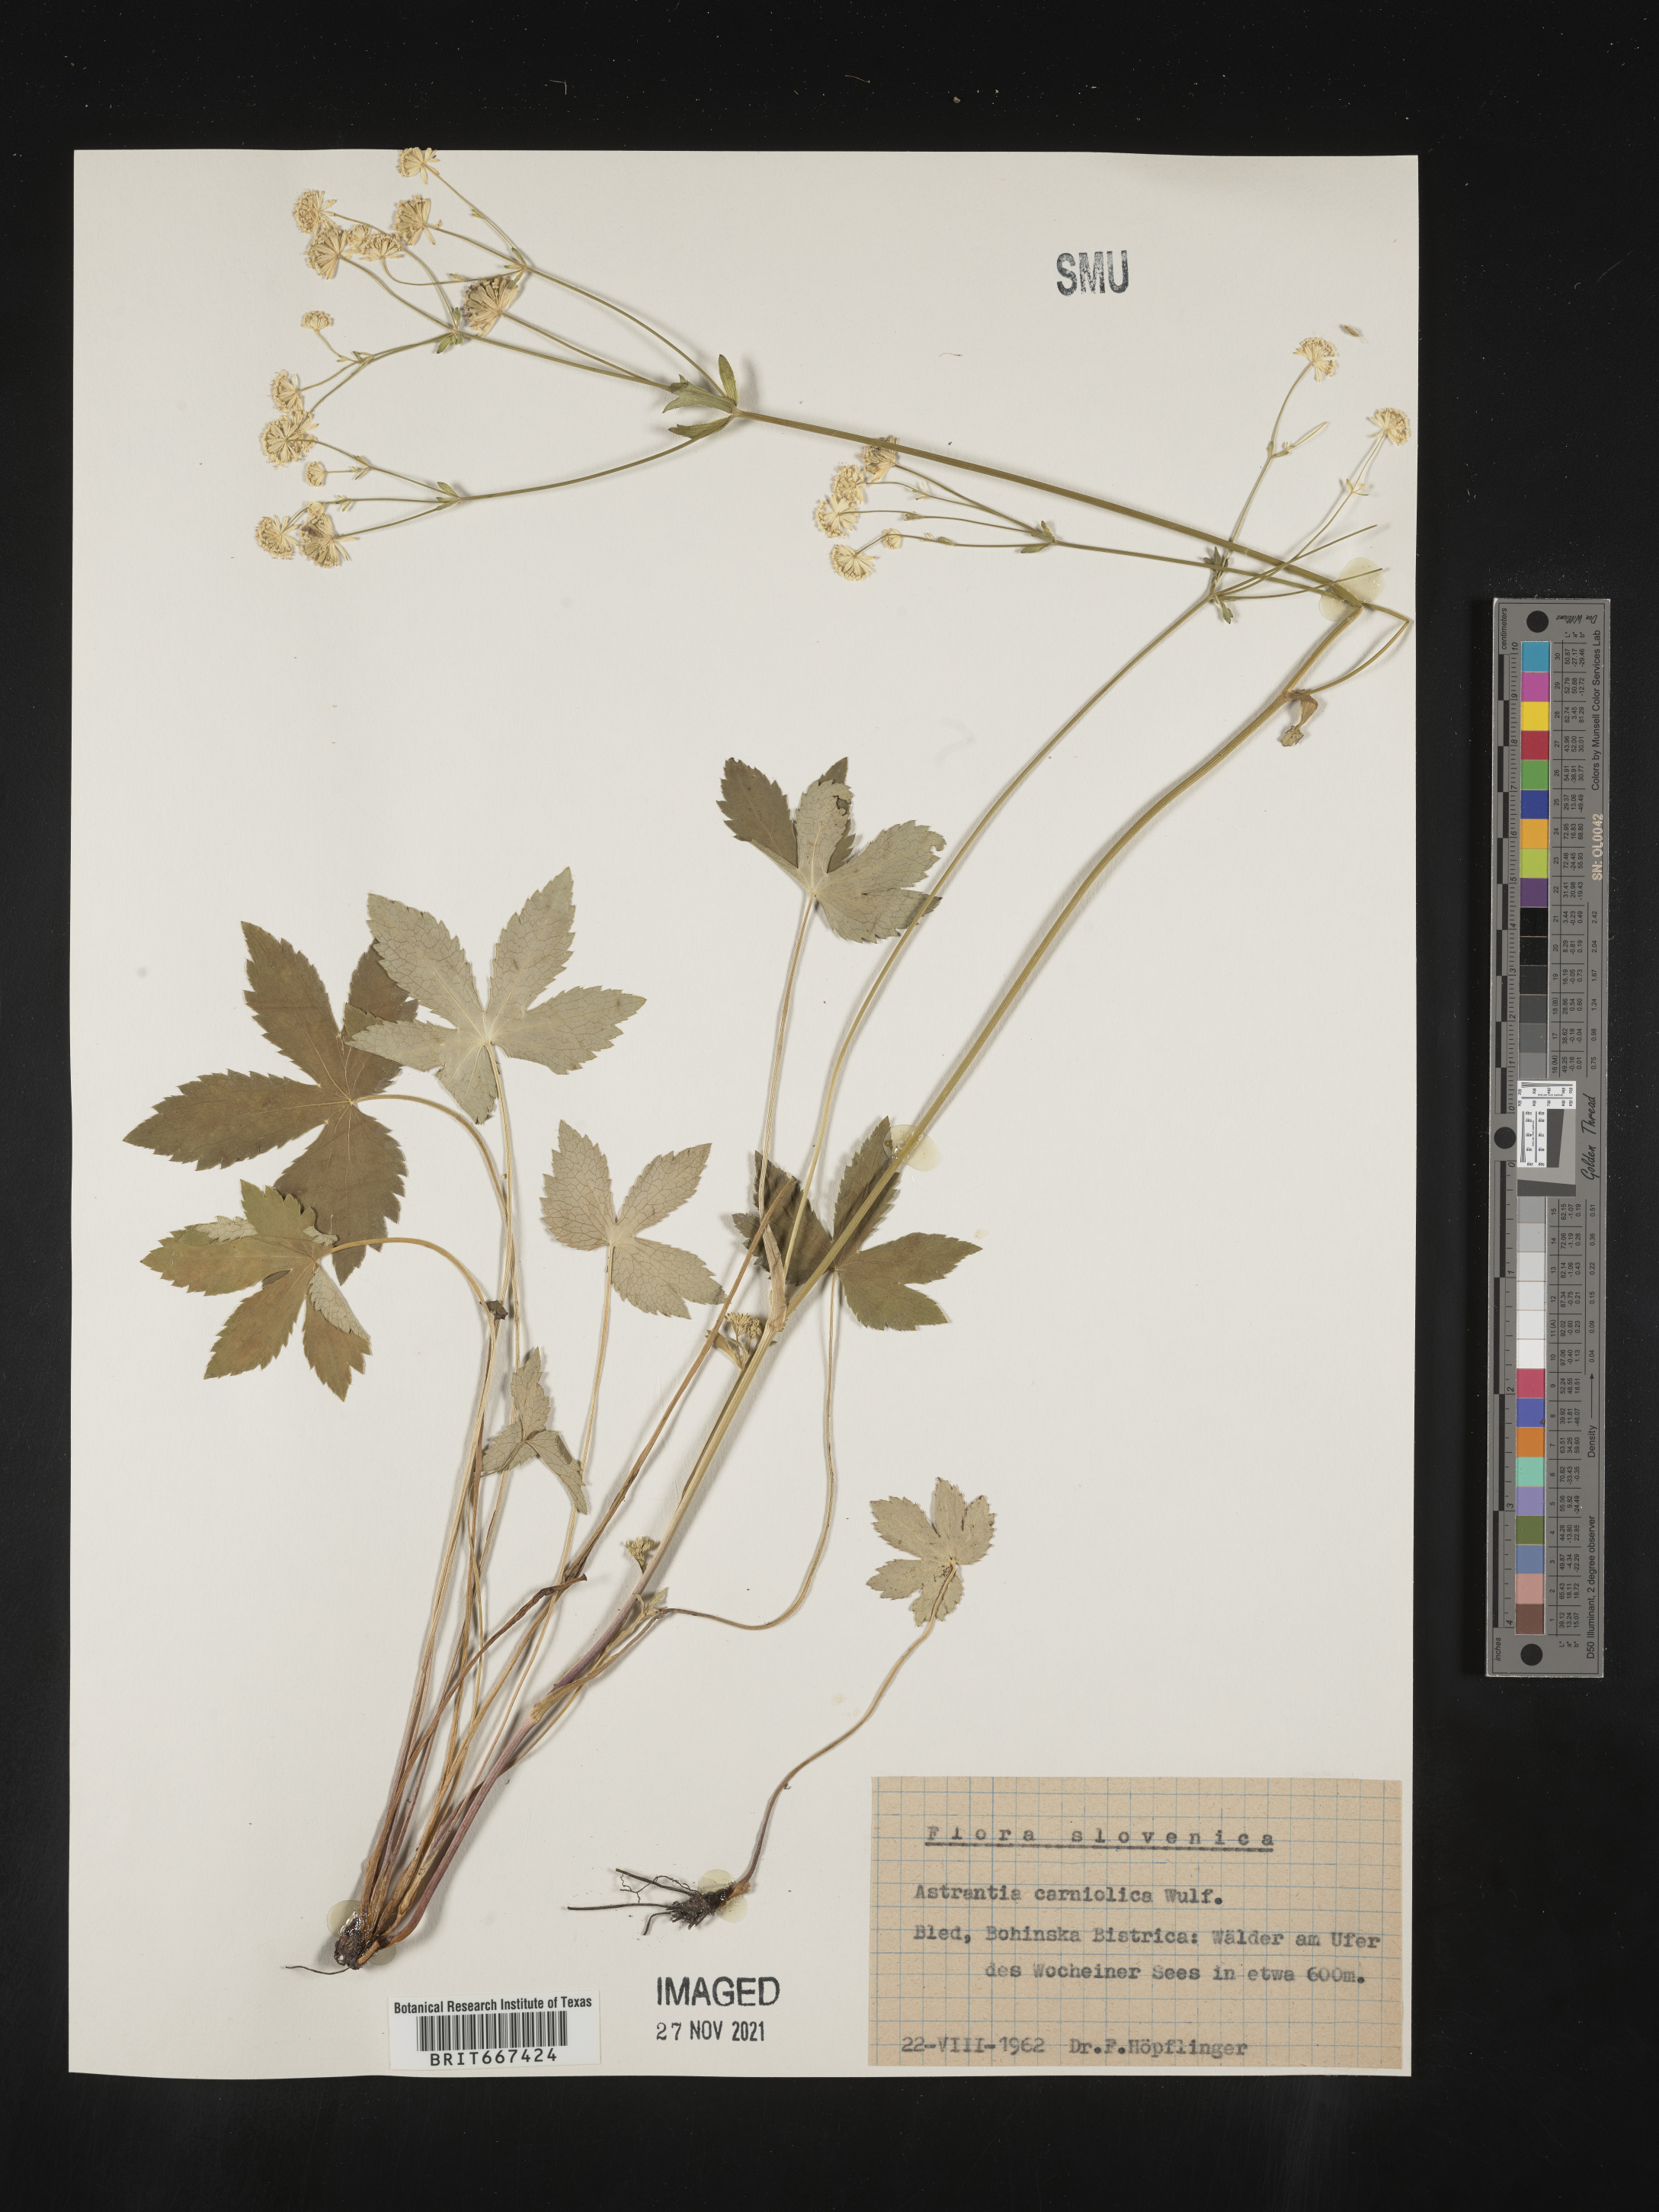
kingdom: Plantae
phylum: Tracheophyta
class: Magnoliopsida
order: Apiales
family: Apiaceae
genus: Astrantia
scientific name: Astrantia
